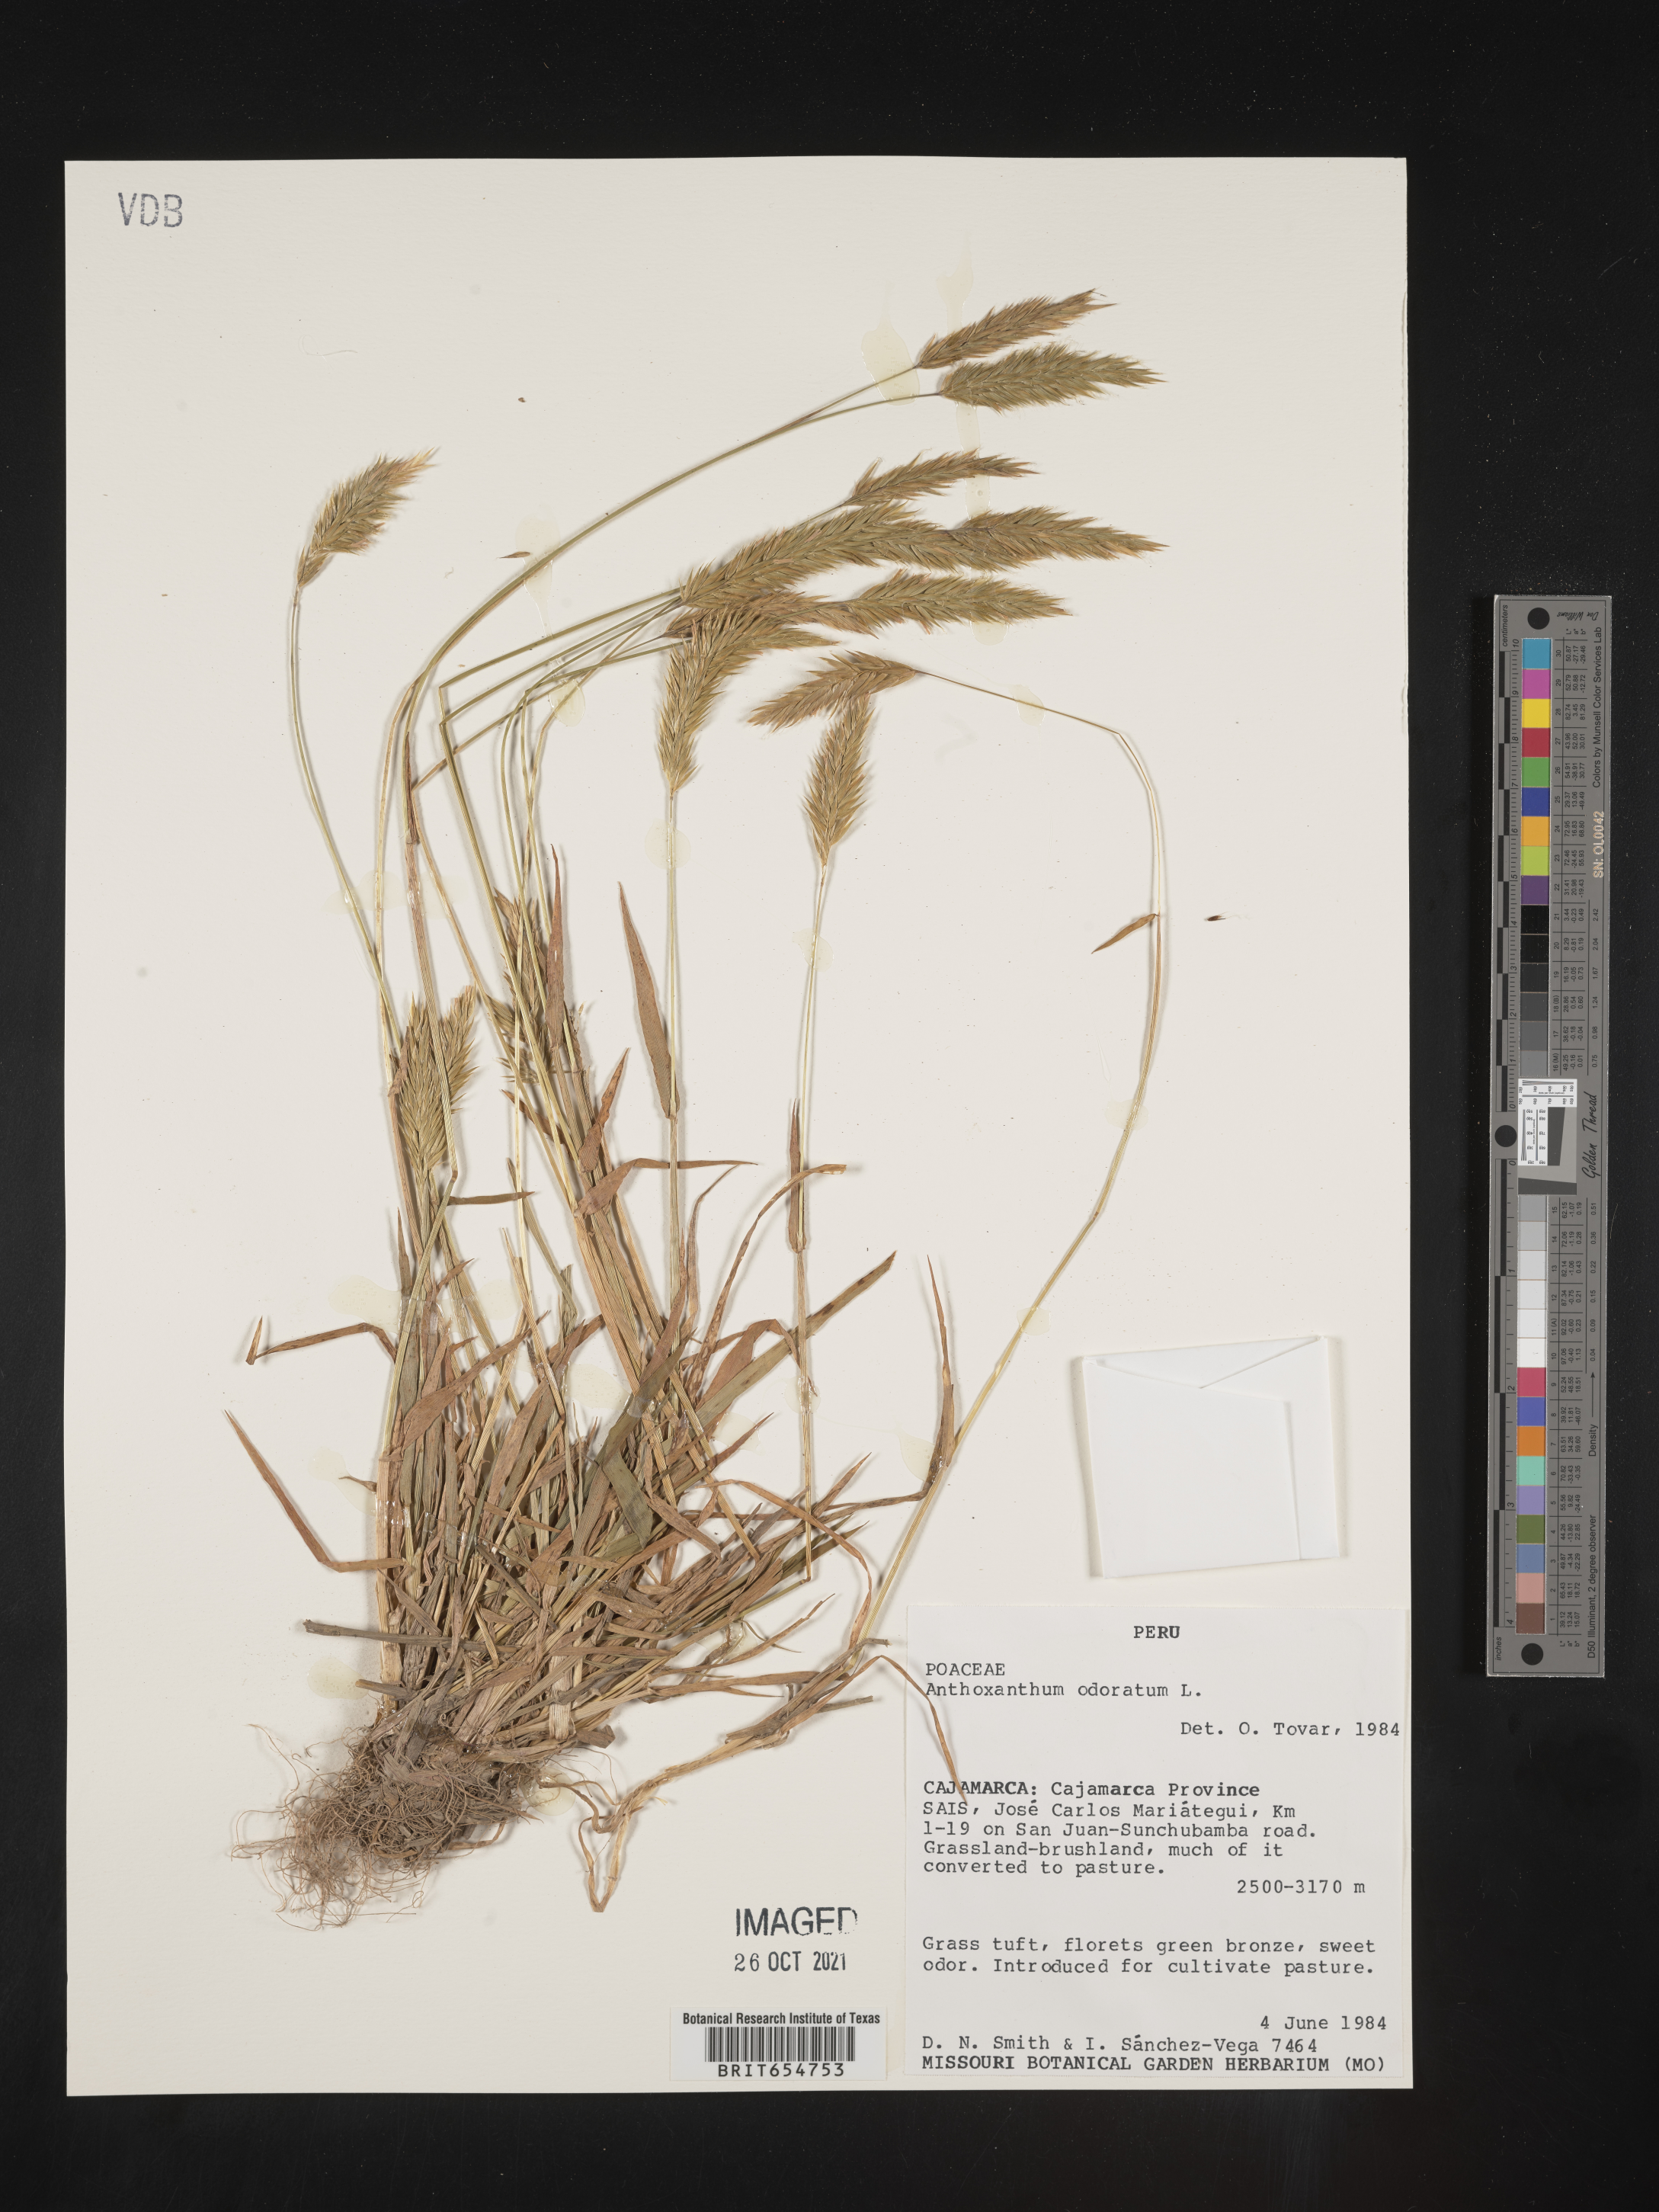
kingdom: Plantae
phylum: Tracheophyta
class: Liliopsida
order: Poales
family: Poaceae
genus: Anthoxanthum
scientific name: Anthoxanthum
